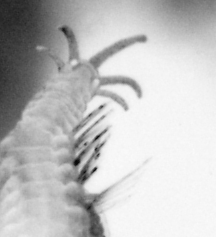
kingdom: Animalia
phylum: Annelida
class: Polychaeta
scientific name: Polychaeta
